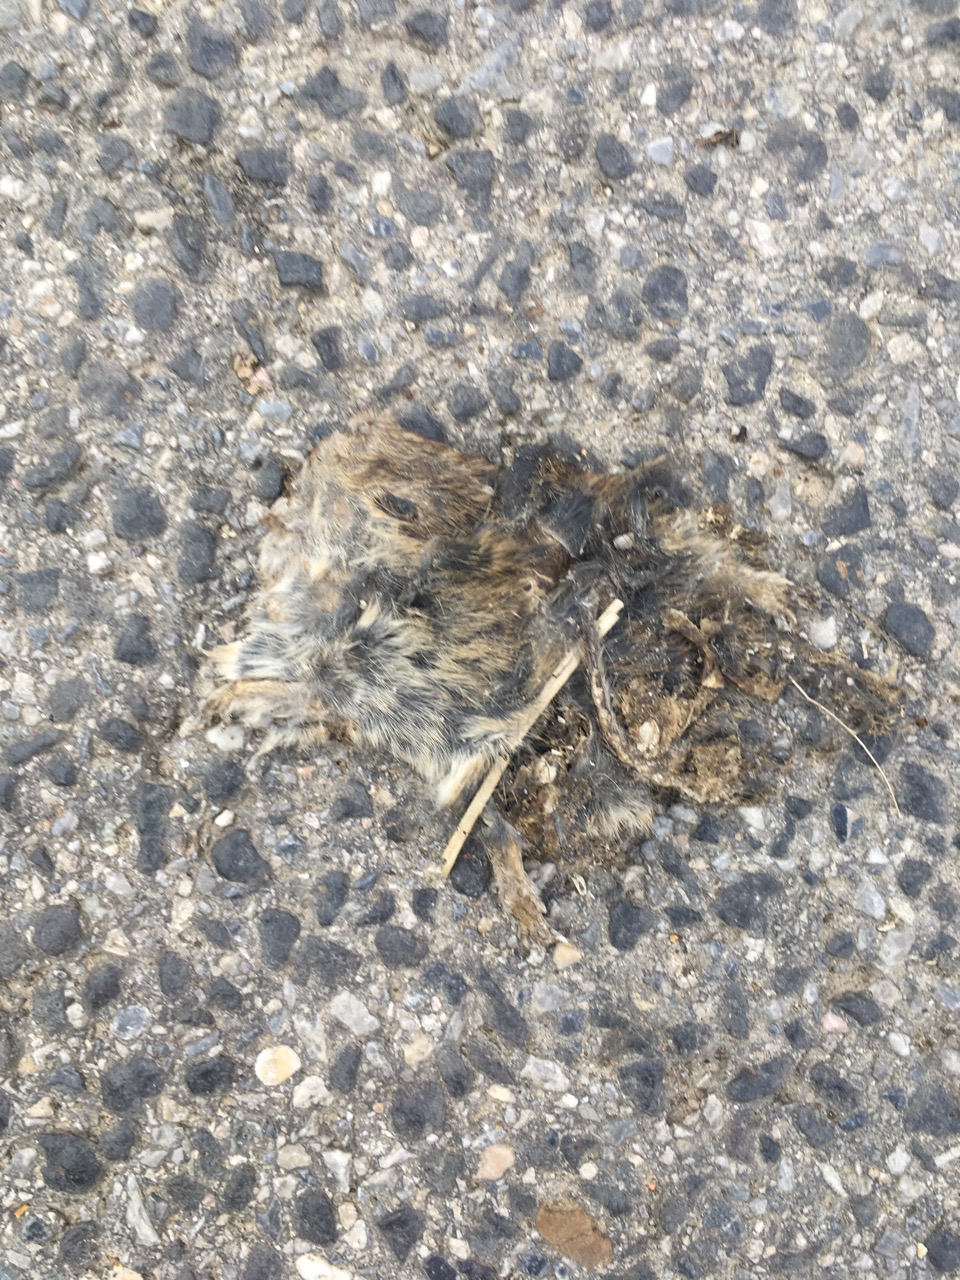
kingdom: Animalia
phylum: Chordata
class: Mammalia
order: Rodentia
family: Cricetidae
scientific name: Cricetidae
